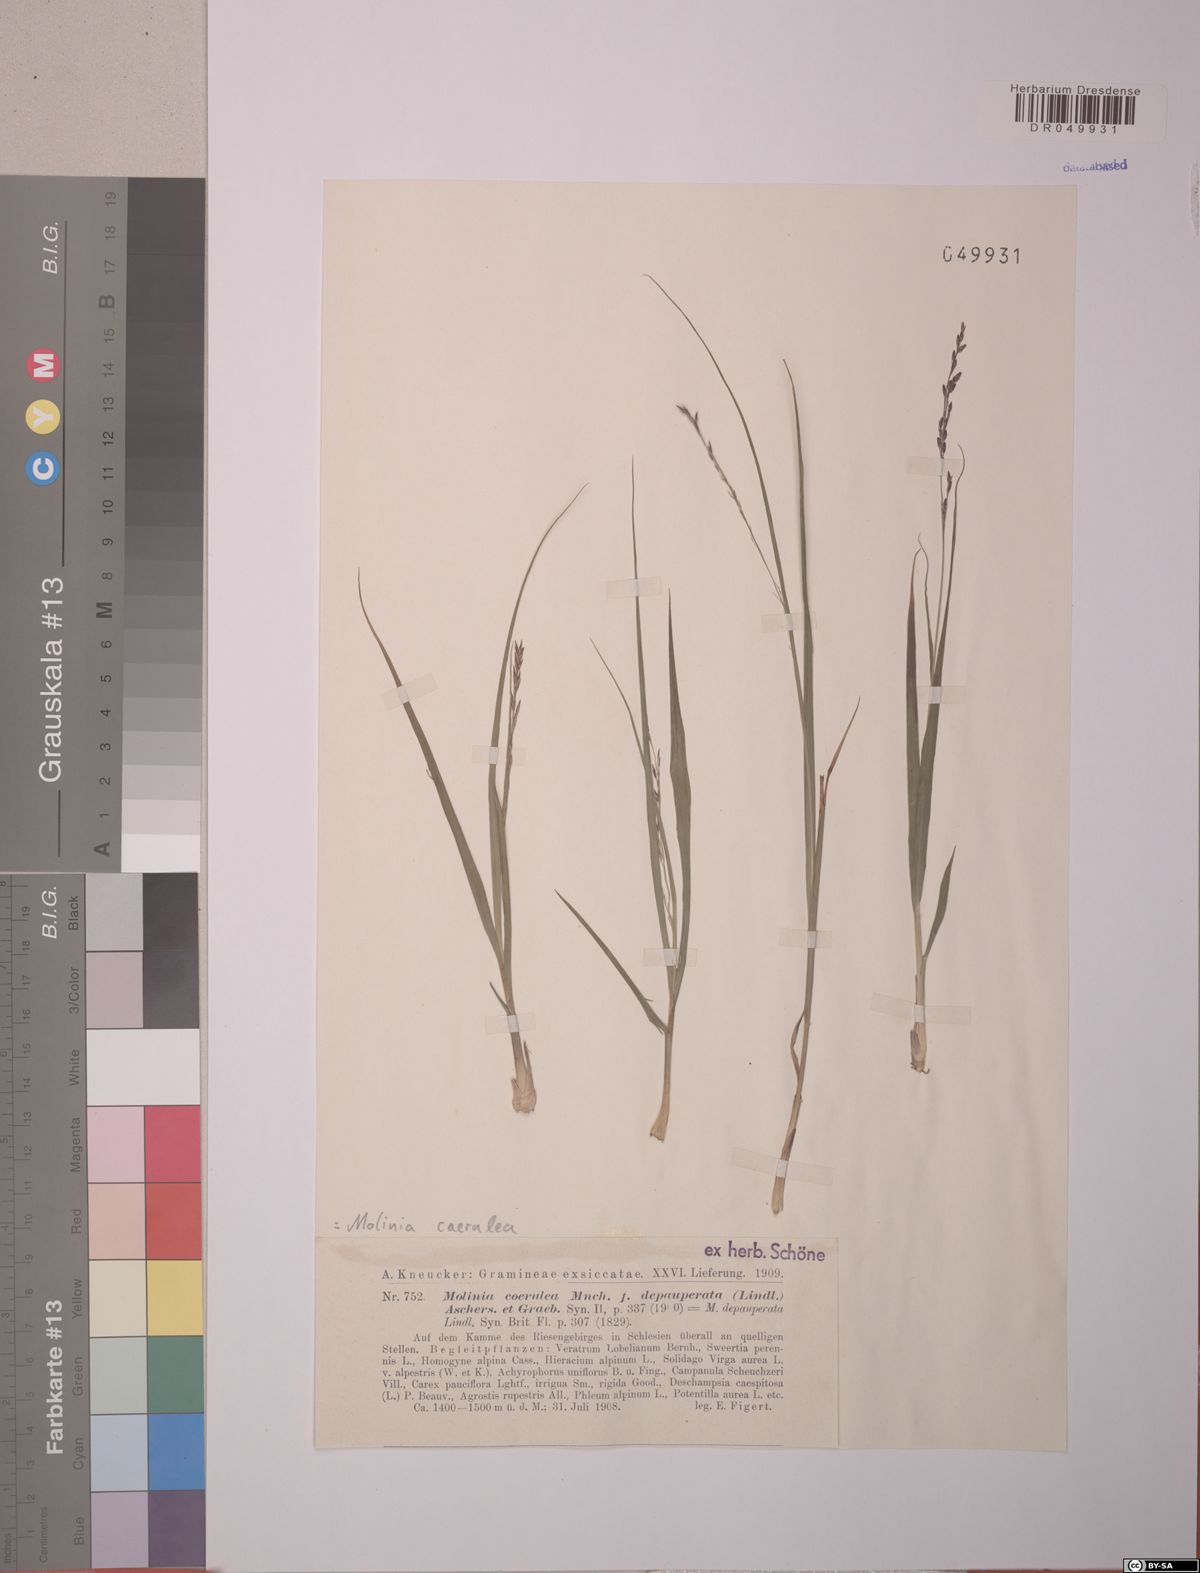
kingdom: Plantae
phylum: Tracheophyta
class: Liliopsida
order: Poales
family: Poaceae
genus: Molinia
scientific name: Molinia caerulea
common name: Purple moor-grass
